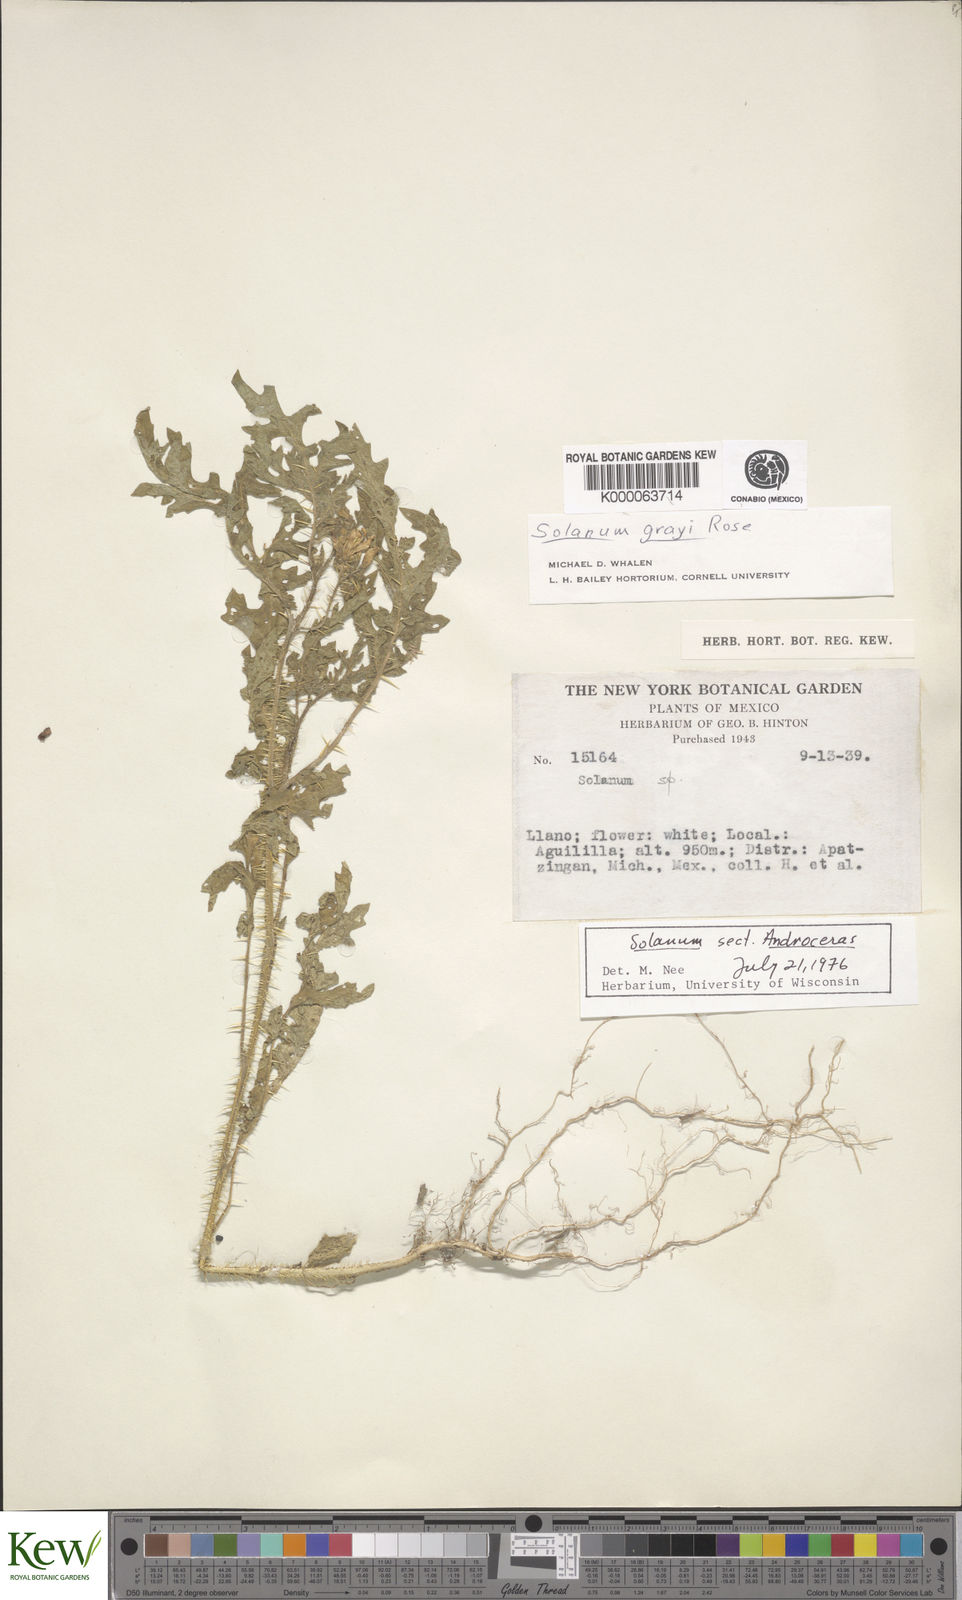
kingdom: Plantae
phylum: Tracheophyta
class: Magnoliopsida
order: Solanales
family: Solanaceae
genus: Solanum
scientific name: Solanum grayi
